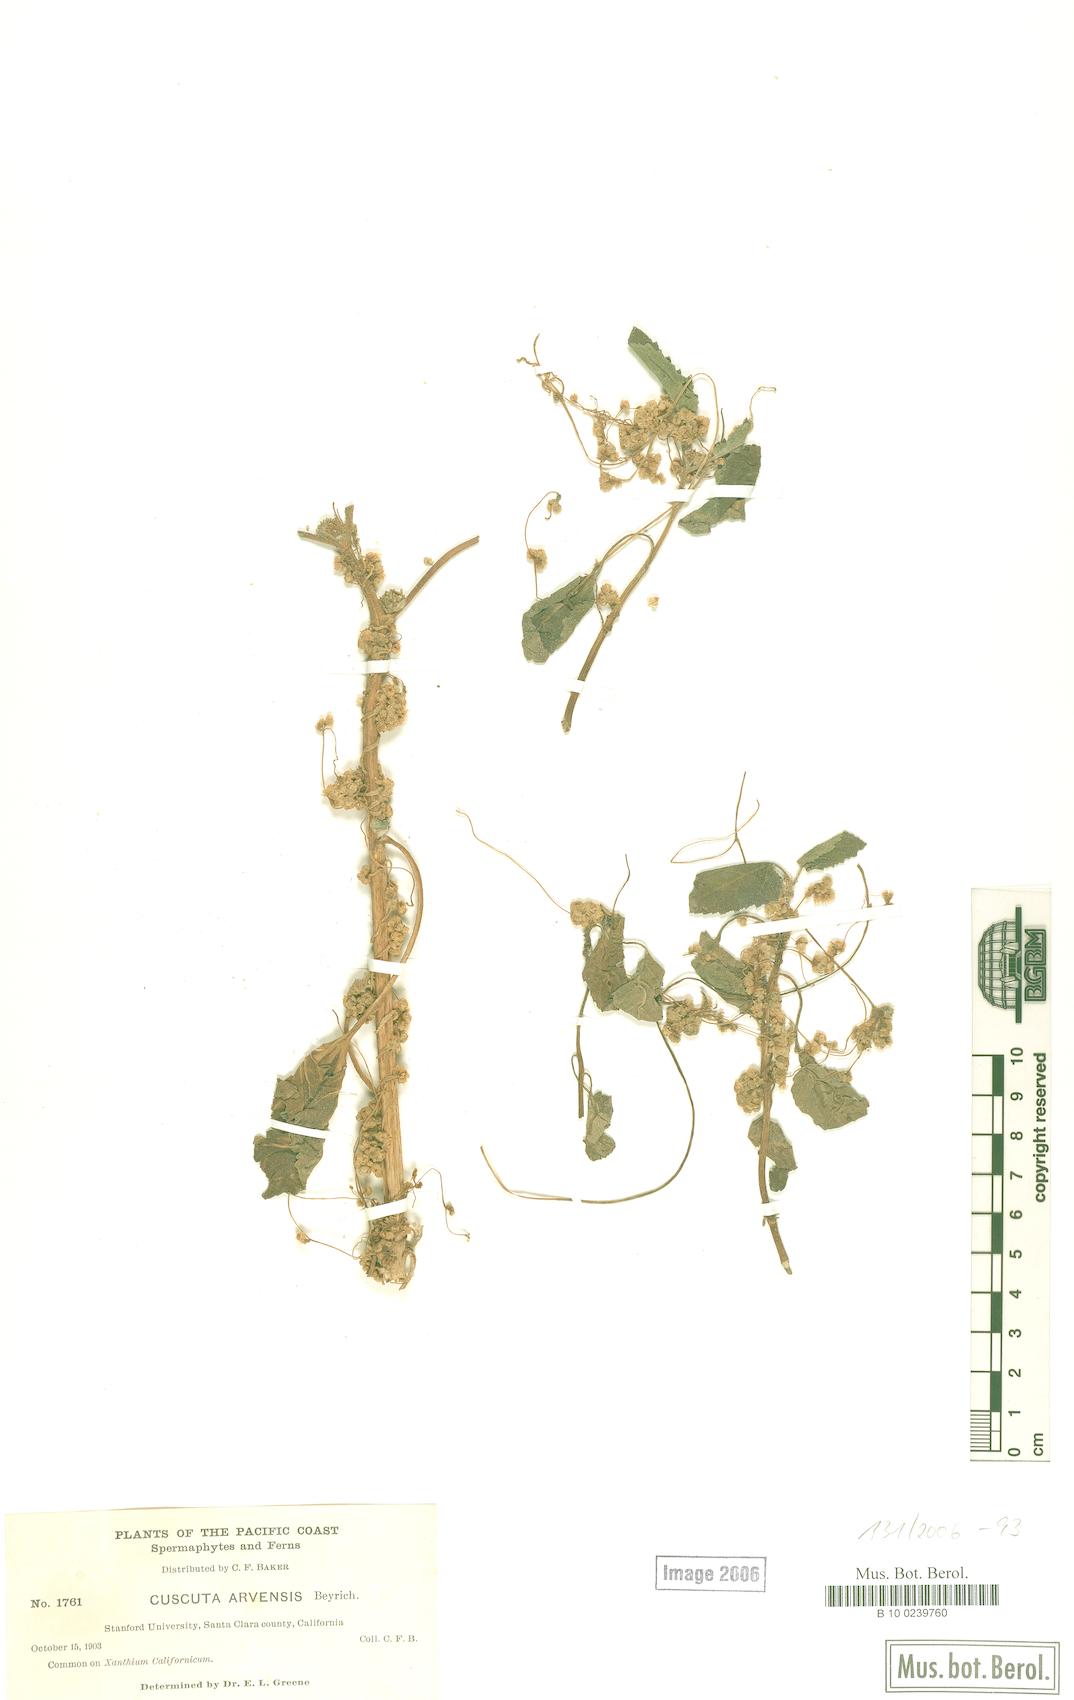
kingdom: Plantae
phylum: Tracheophyta
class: Magnoliopsida
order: Solanales
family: Convolvulaceae
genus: Cuscuta
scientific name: Cuscuta campestris
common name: Yellow dodder
